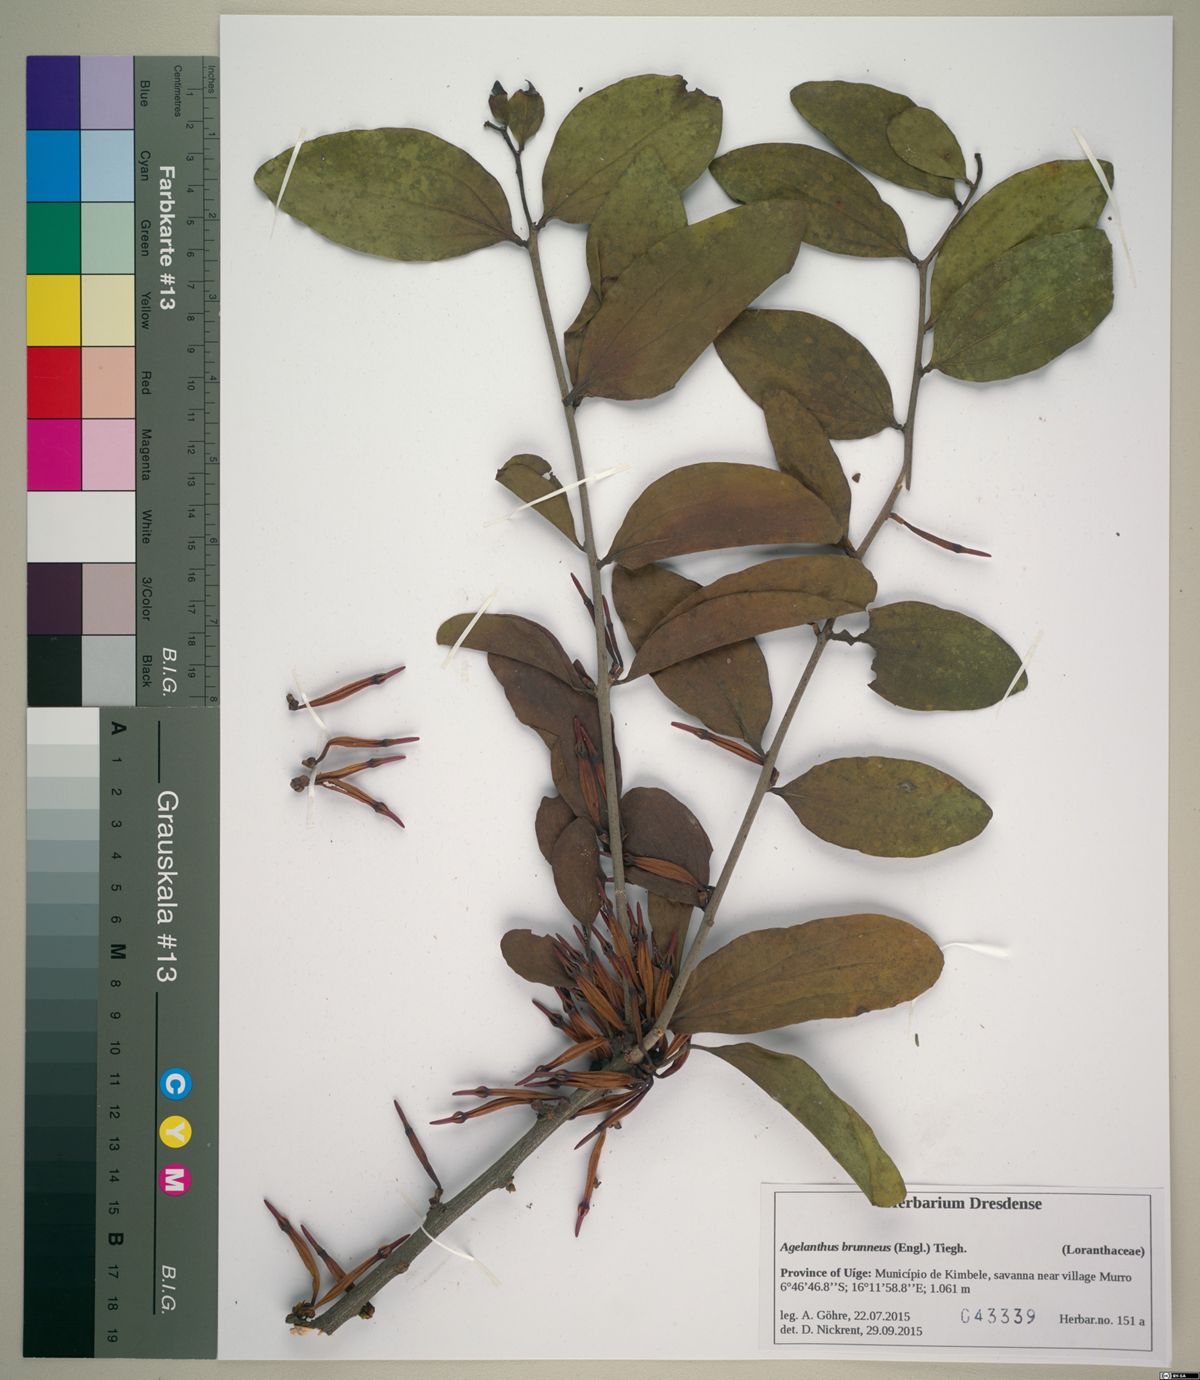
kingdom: Plantae
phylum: Tracheophyta
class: Magnoliopsida
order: Santalales
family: Loranthaceae
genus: Agelanthus
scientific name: Agelanthus brunneus
